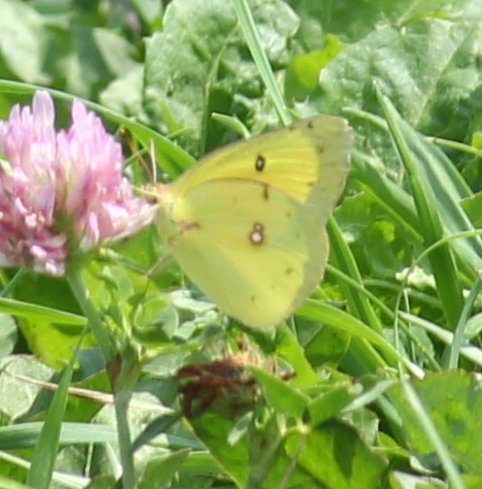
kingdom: Animalia
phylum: Arthropoda
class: Insecta
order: Lepidoptera
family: Pieridae
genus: Colias
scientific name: Colias eurytheme
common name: Orange Sulphur
